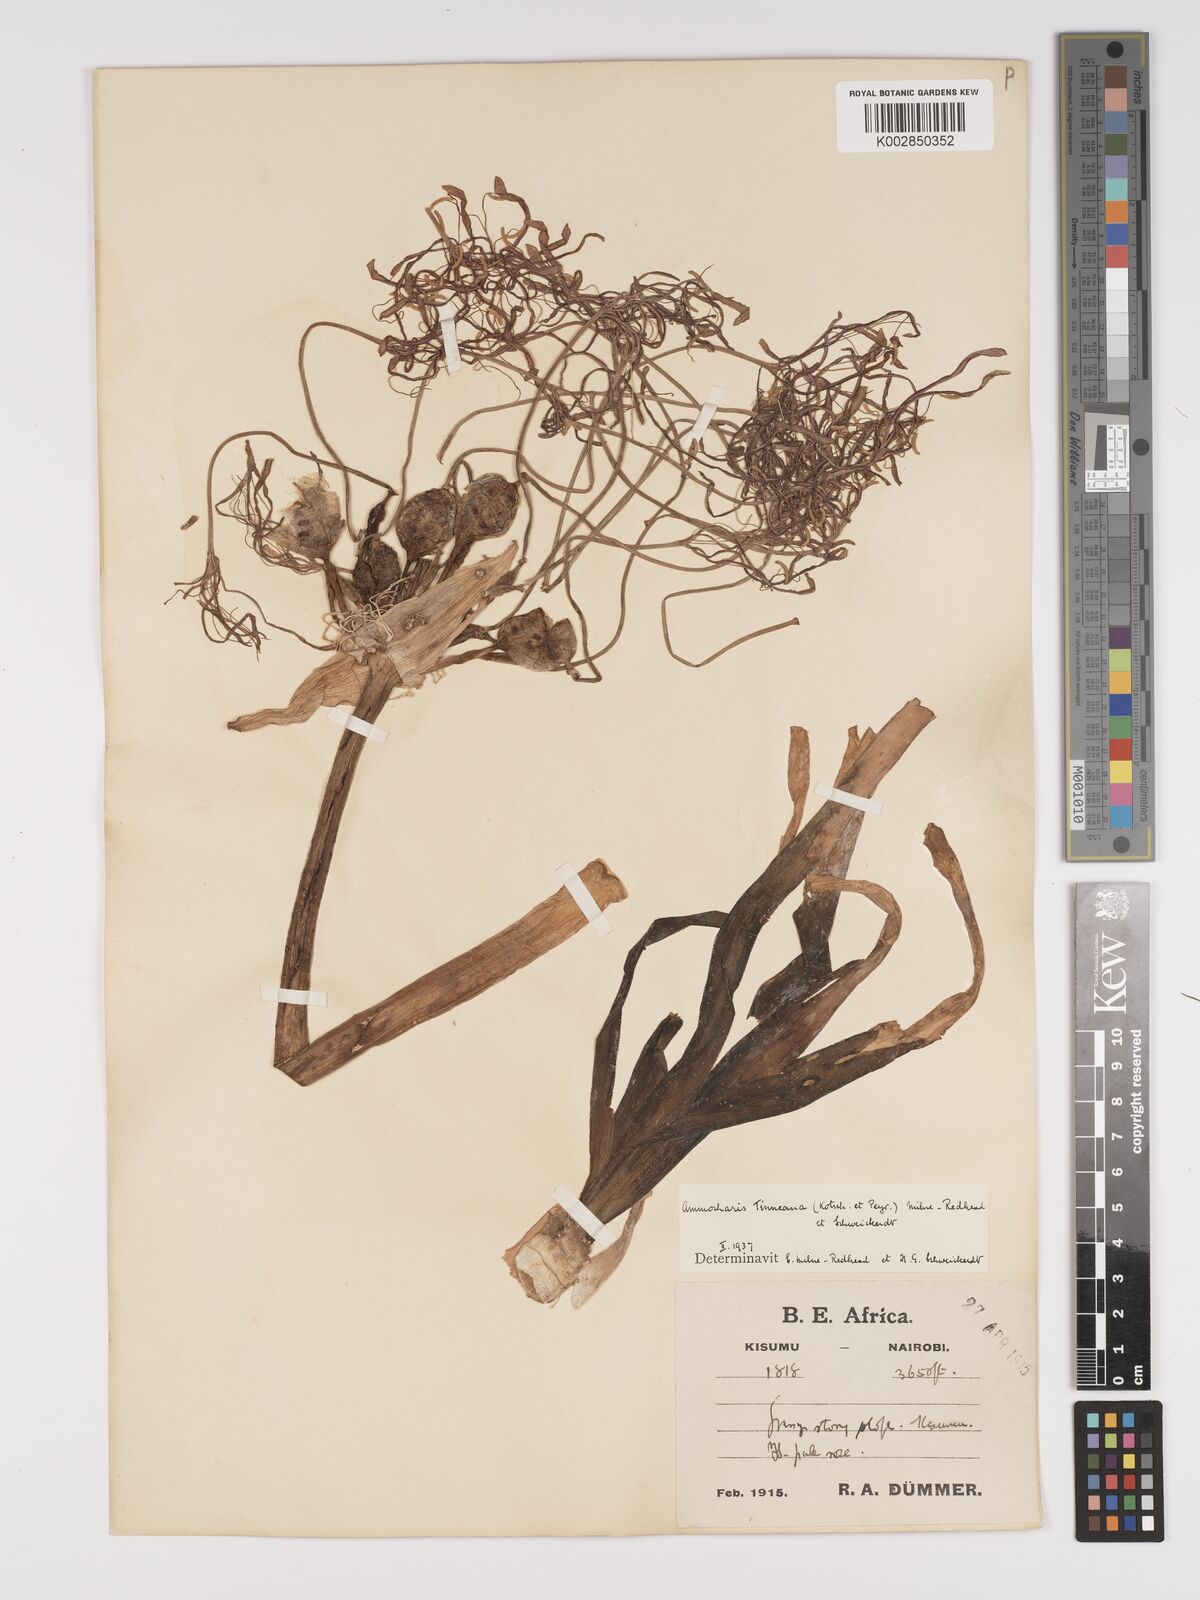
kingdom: Plantae
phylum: Tracheophyta
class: Liliopsida
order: Asparagales
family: Amaryllidaceae
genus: Ammocharis
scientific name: Ammocharis tinneana
